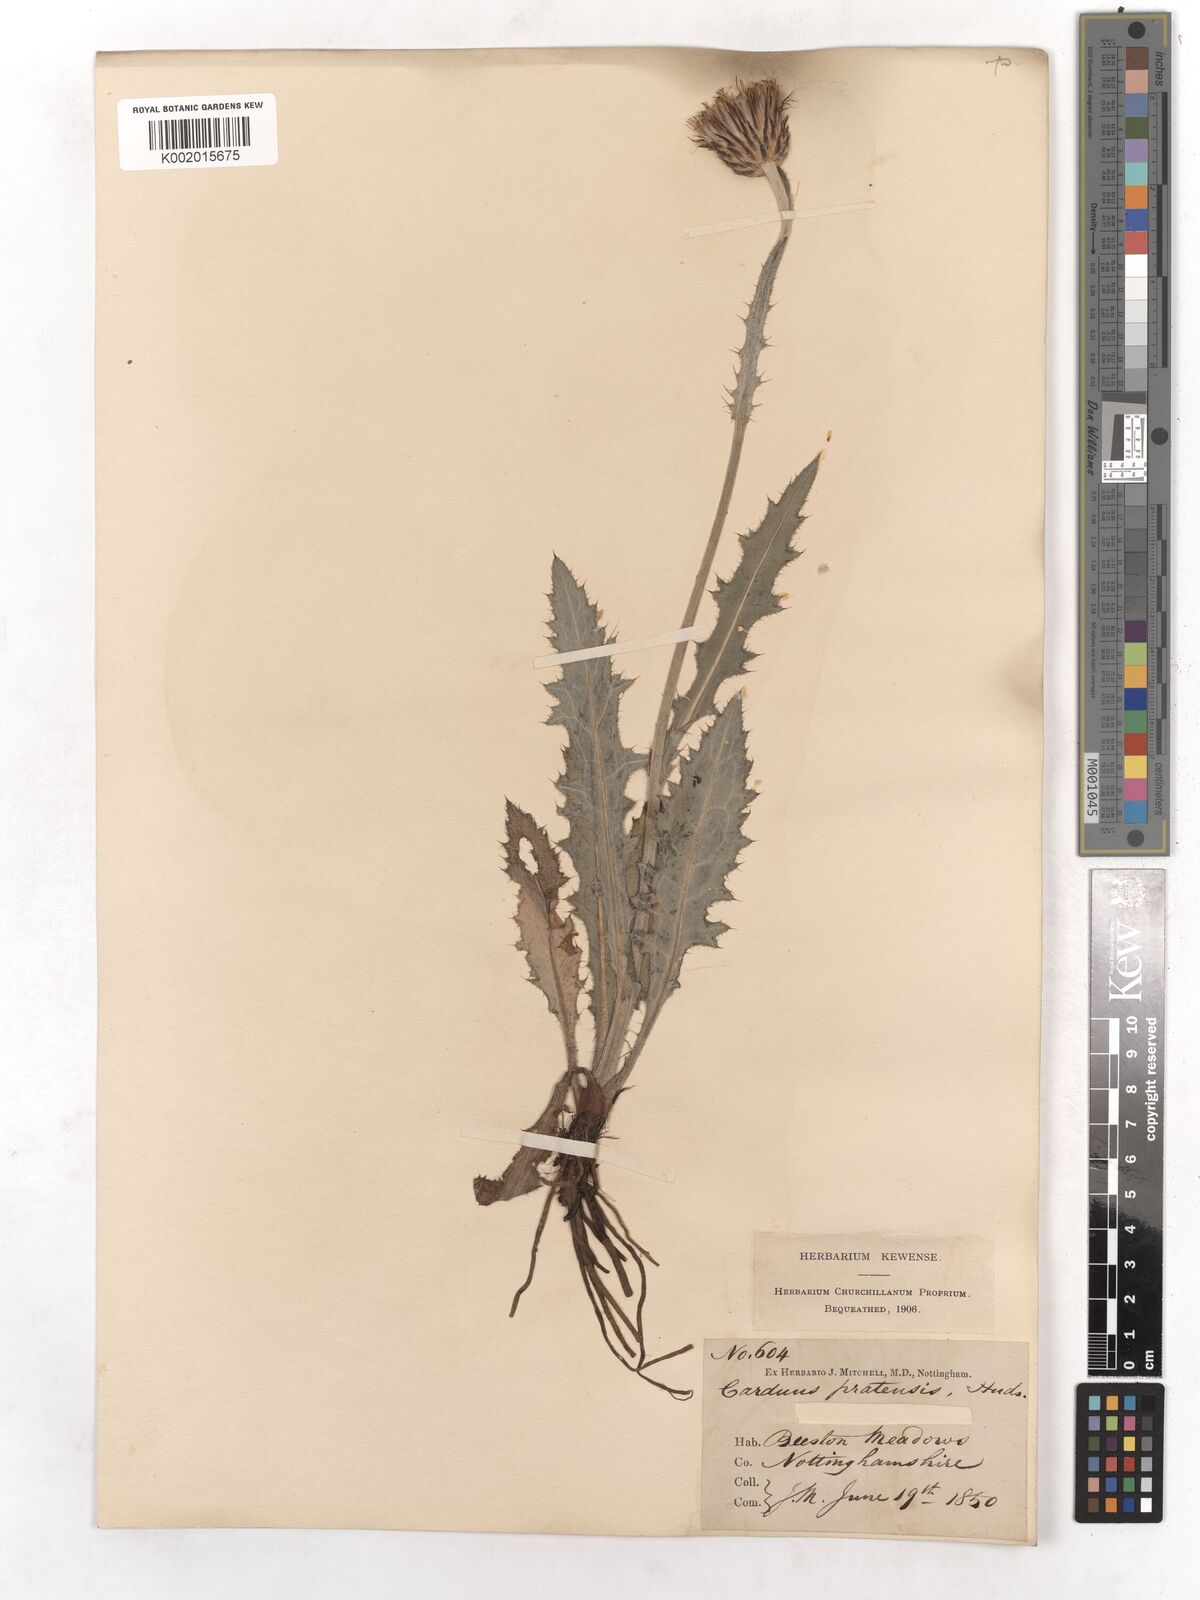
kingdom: Plantae
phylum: Tracheophyta
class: Magnoliopsida
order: Asterales
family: Asteraceae
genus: Cirsium
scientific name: Cirsium dissectum
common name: Meadow thistle
